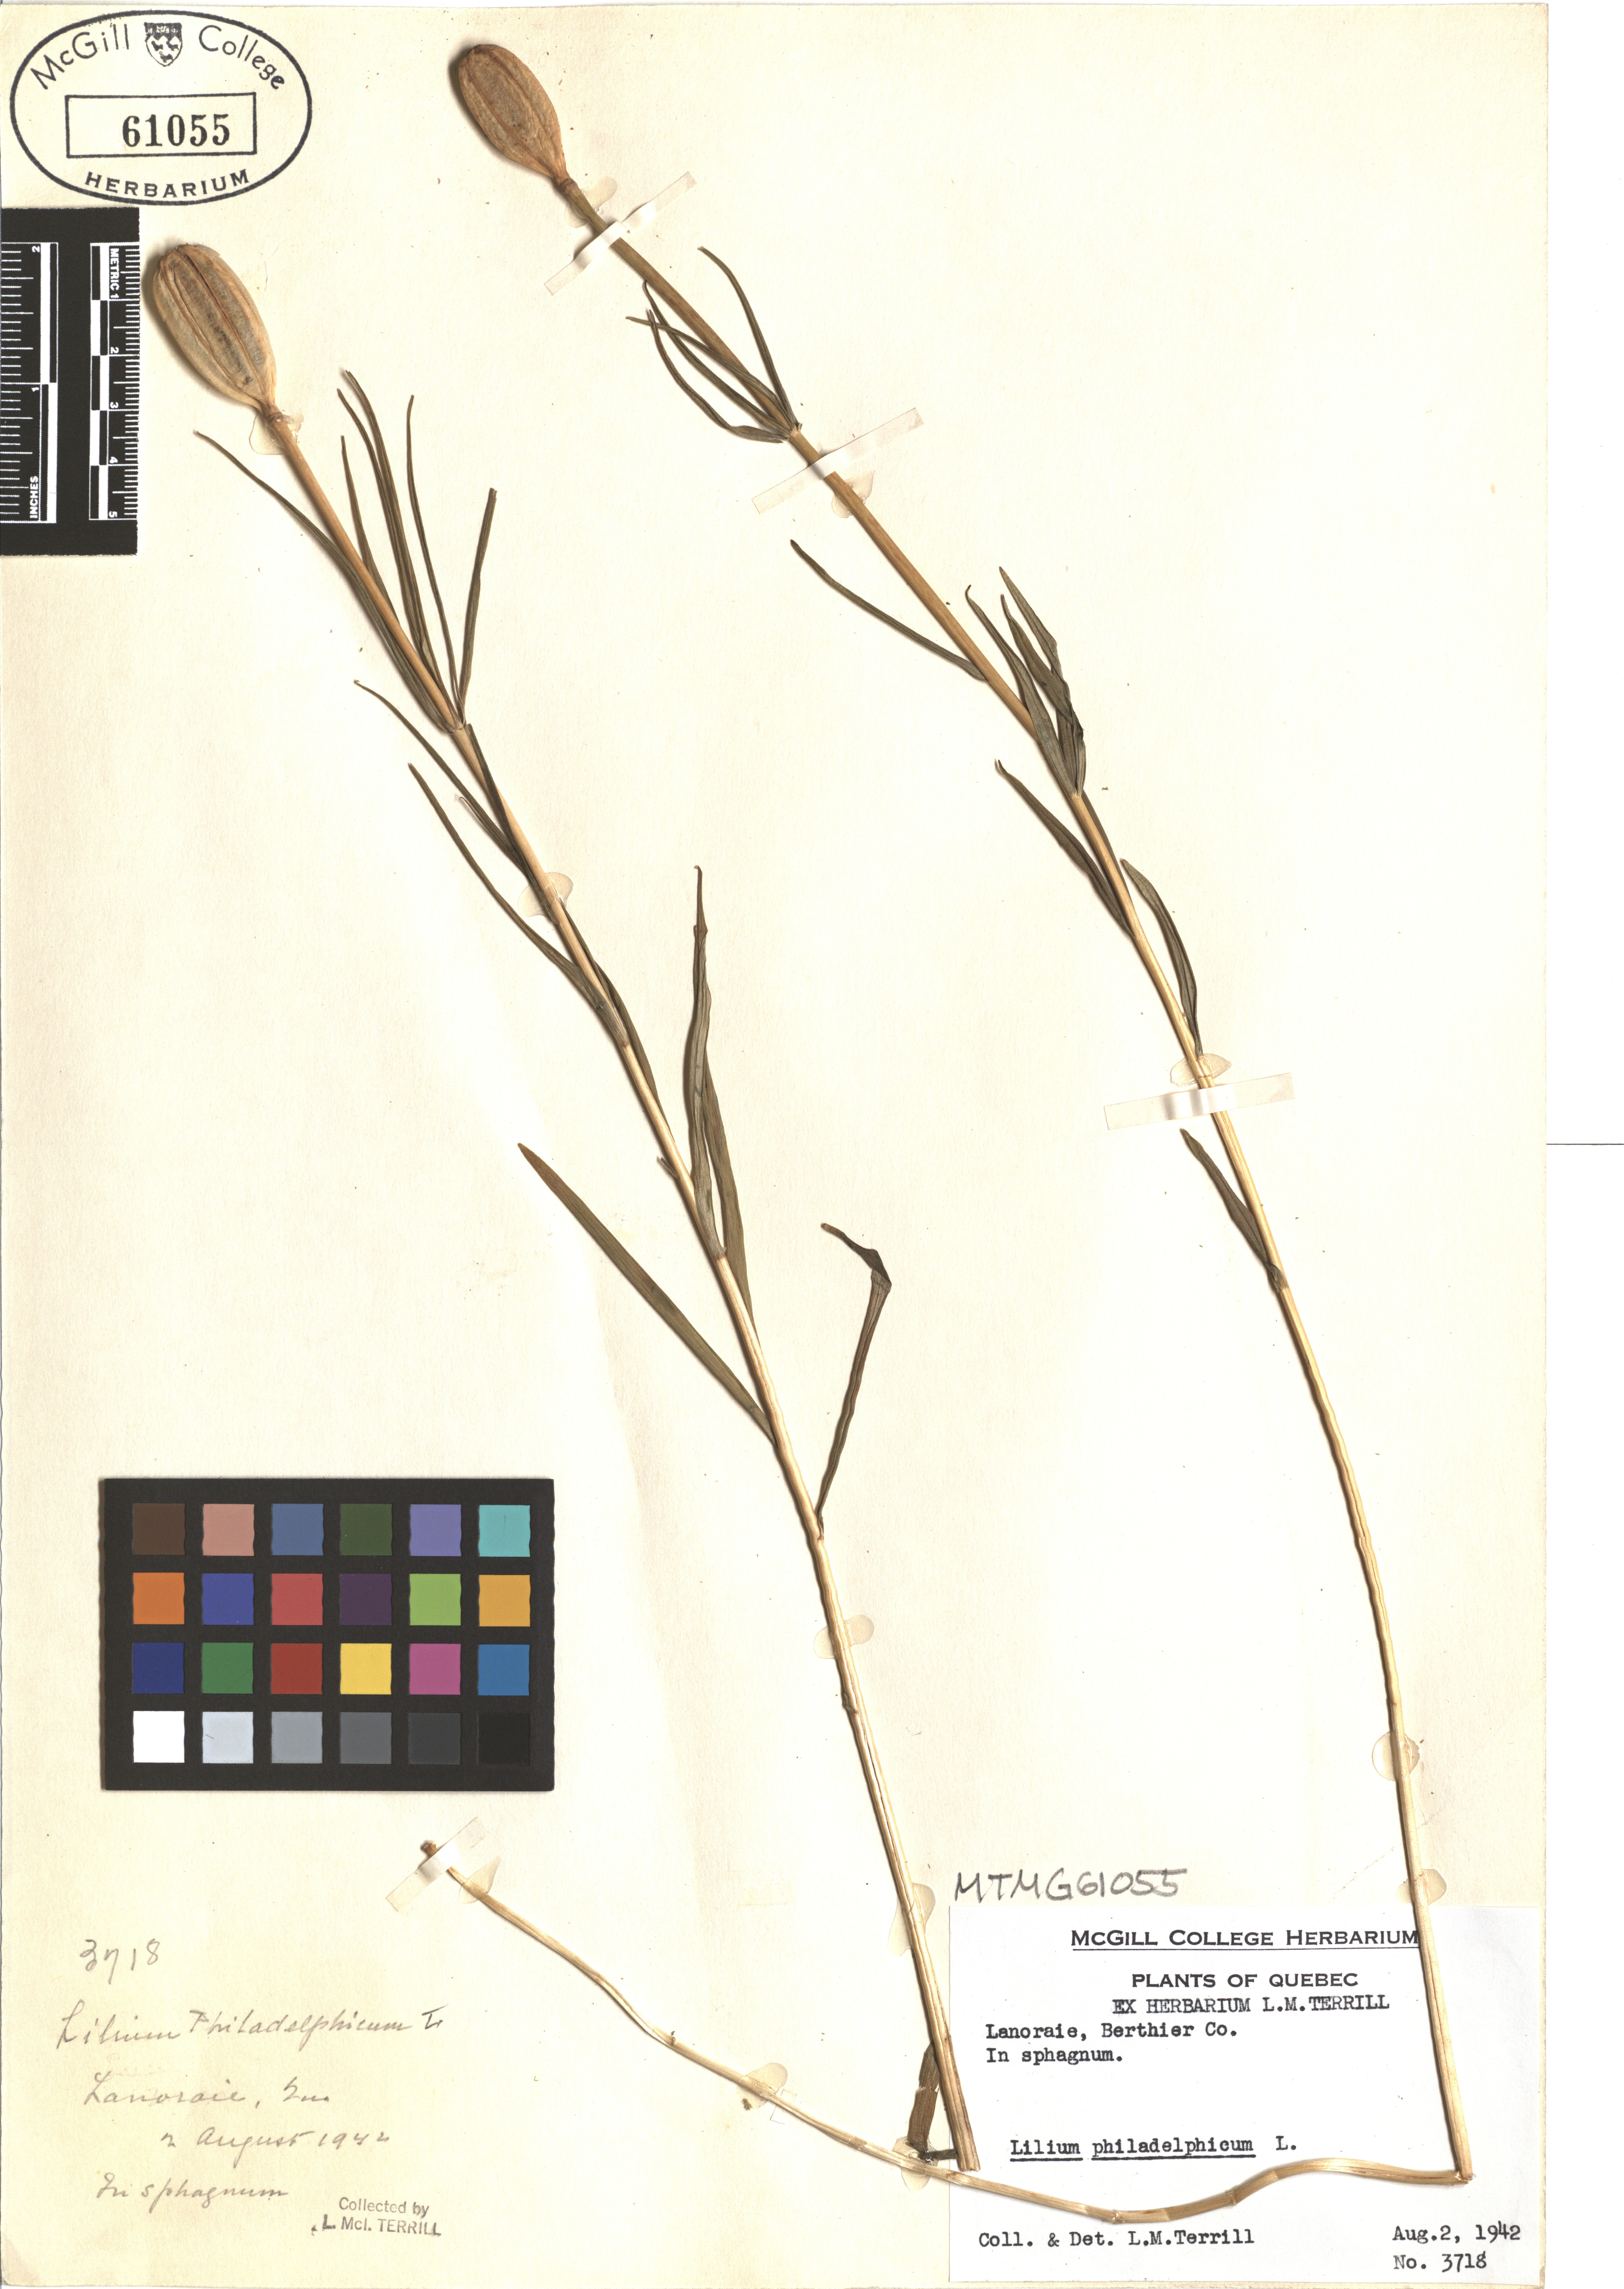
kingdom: Plantae
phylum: Tracheophyta
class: Liliopsida
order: Liliales
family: Liliaceae
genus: Lilium
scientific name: Lilium philadelphicum
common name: Red lily
